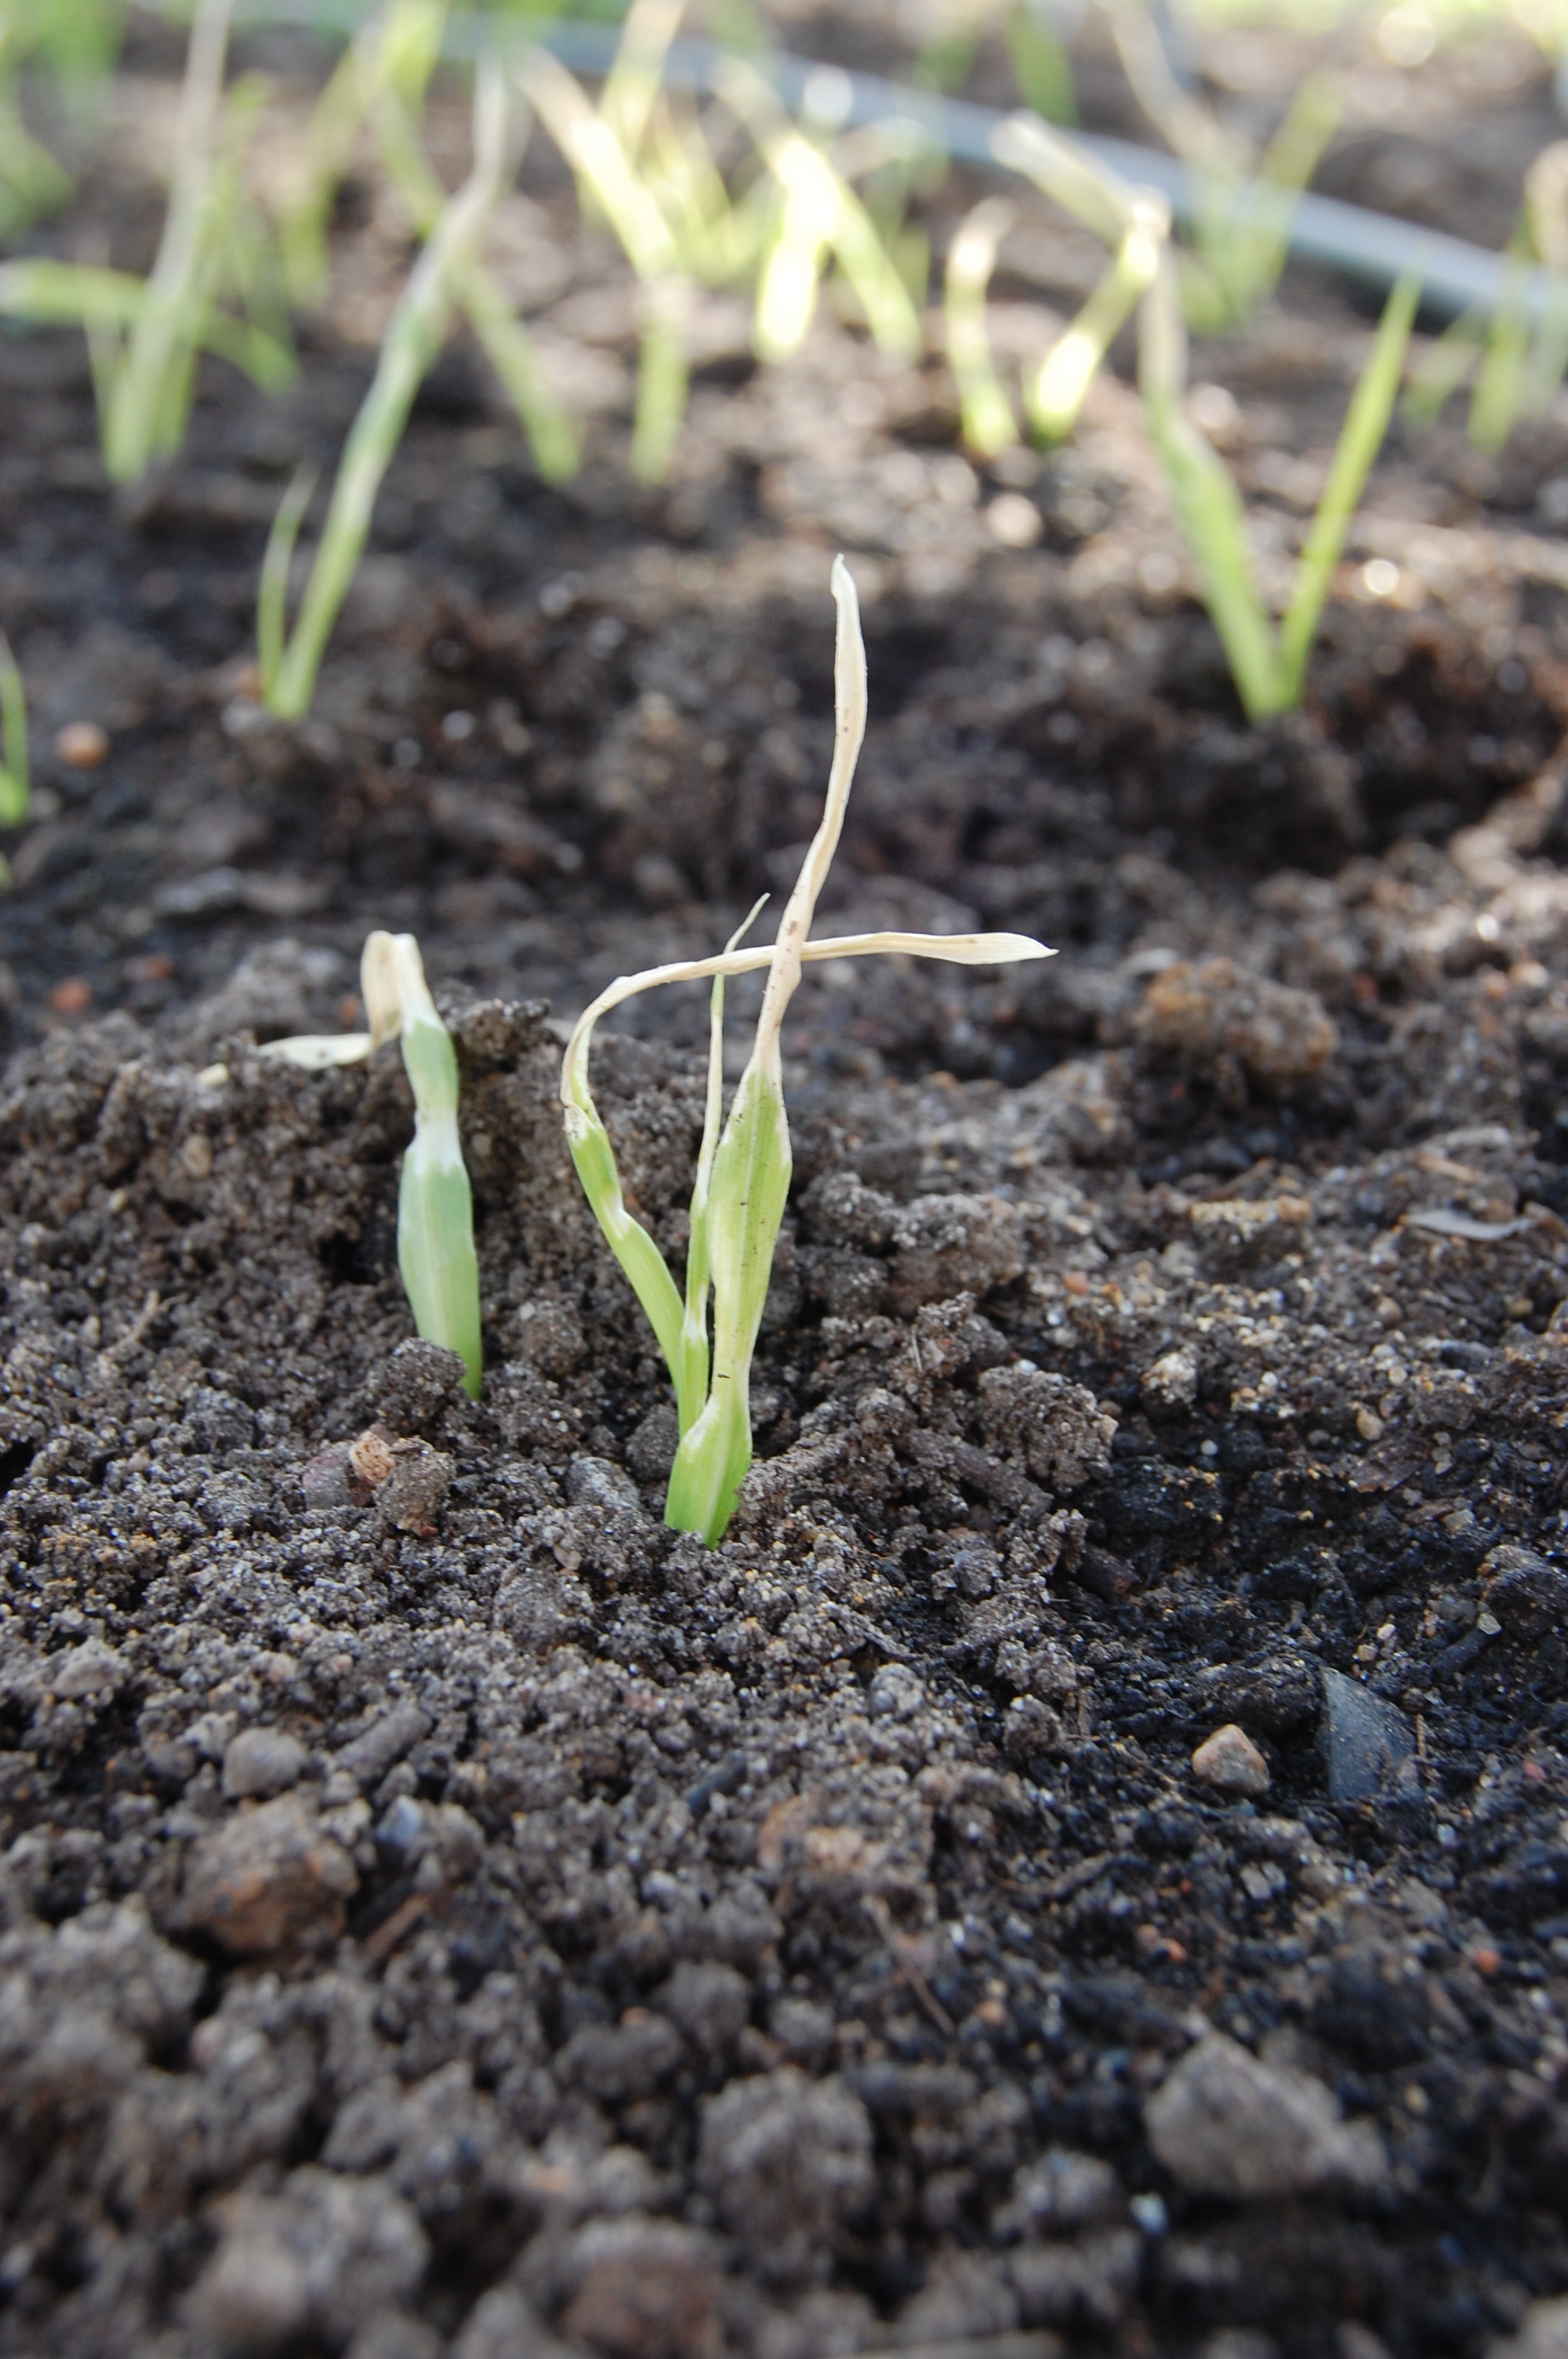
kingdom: Plantae
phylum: Tracheophyta
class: Liliopsida
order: Poales
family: Poaceae
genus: Hordeum
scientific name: Hordeum vulgare
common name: Common barley
